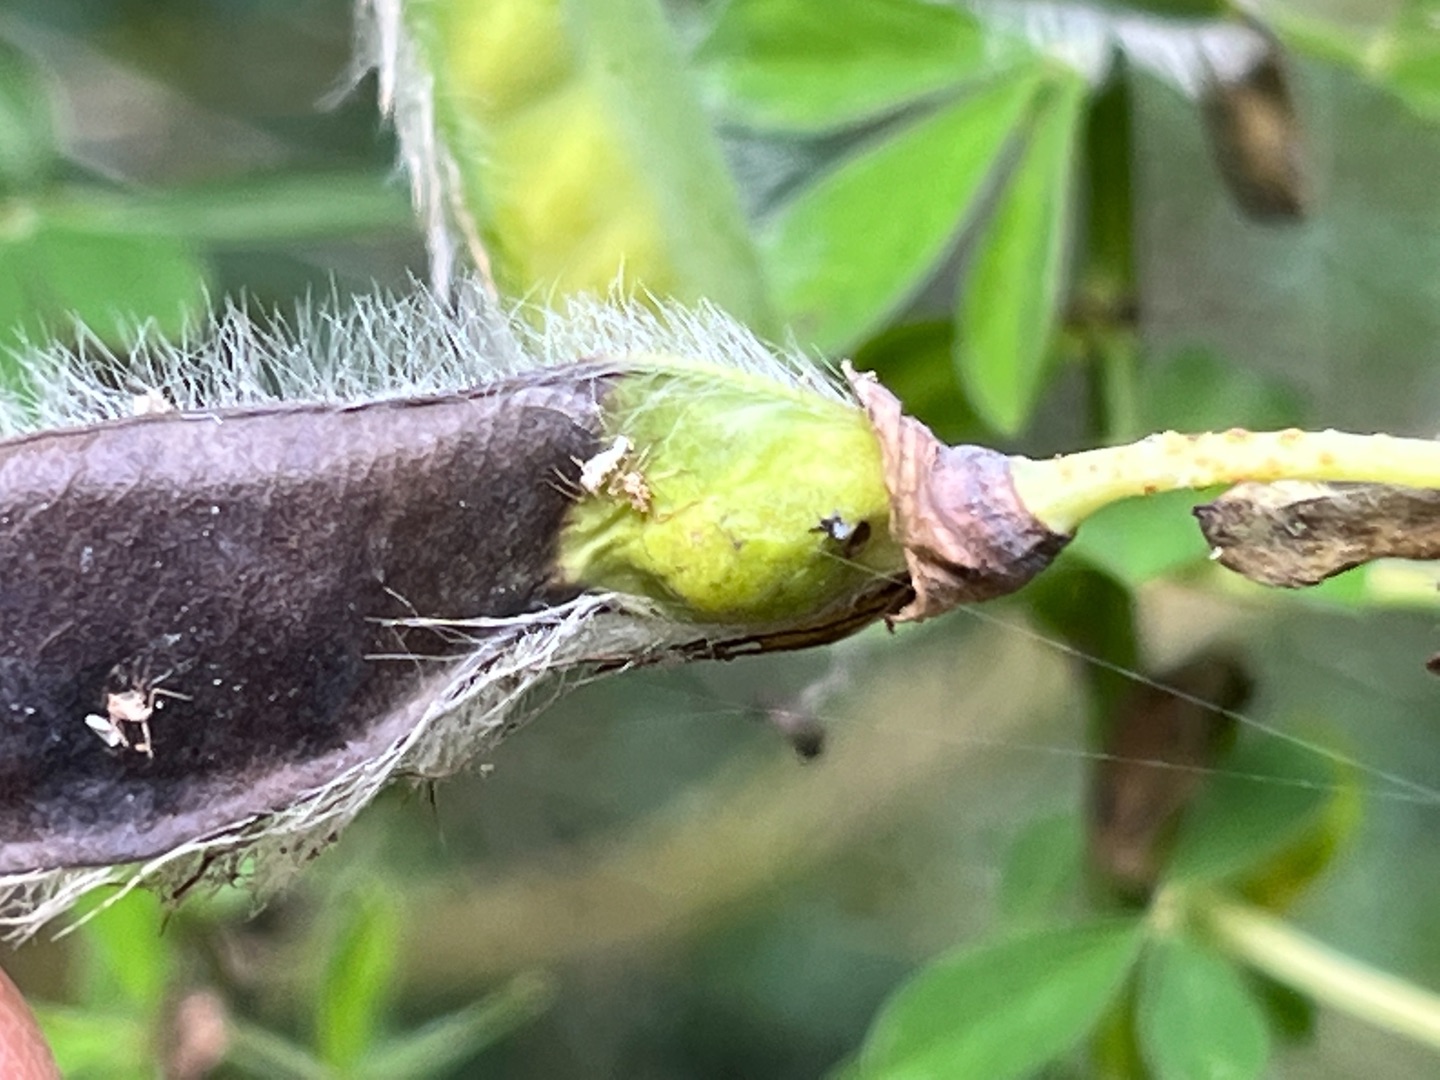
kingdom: Animalia
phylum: Arthropoda
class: Insecta
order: Diptera
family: Cecidomyiidae
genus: Asphondylia
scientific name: Asphondylia sarothamni
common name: Gyvelmycelgalmyg
